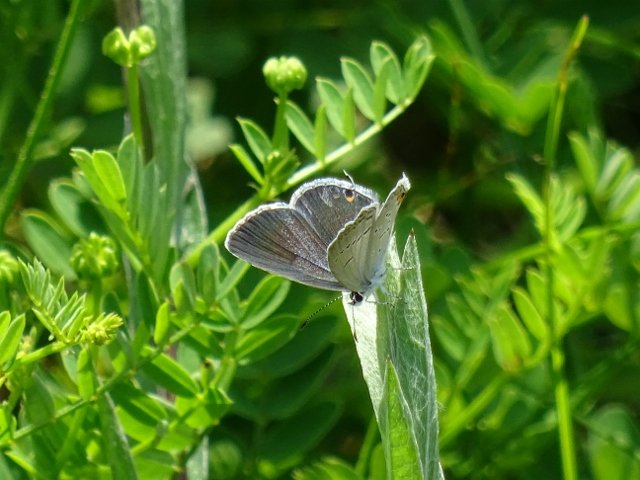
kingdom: Animalia
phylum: Arthropoda
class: Insecta
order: Lepidoptera
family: Lycaenidae
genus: Elkalyce
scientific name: Elkalyce comyntas
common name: Eastern Tailed-Blue
